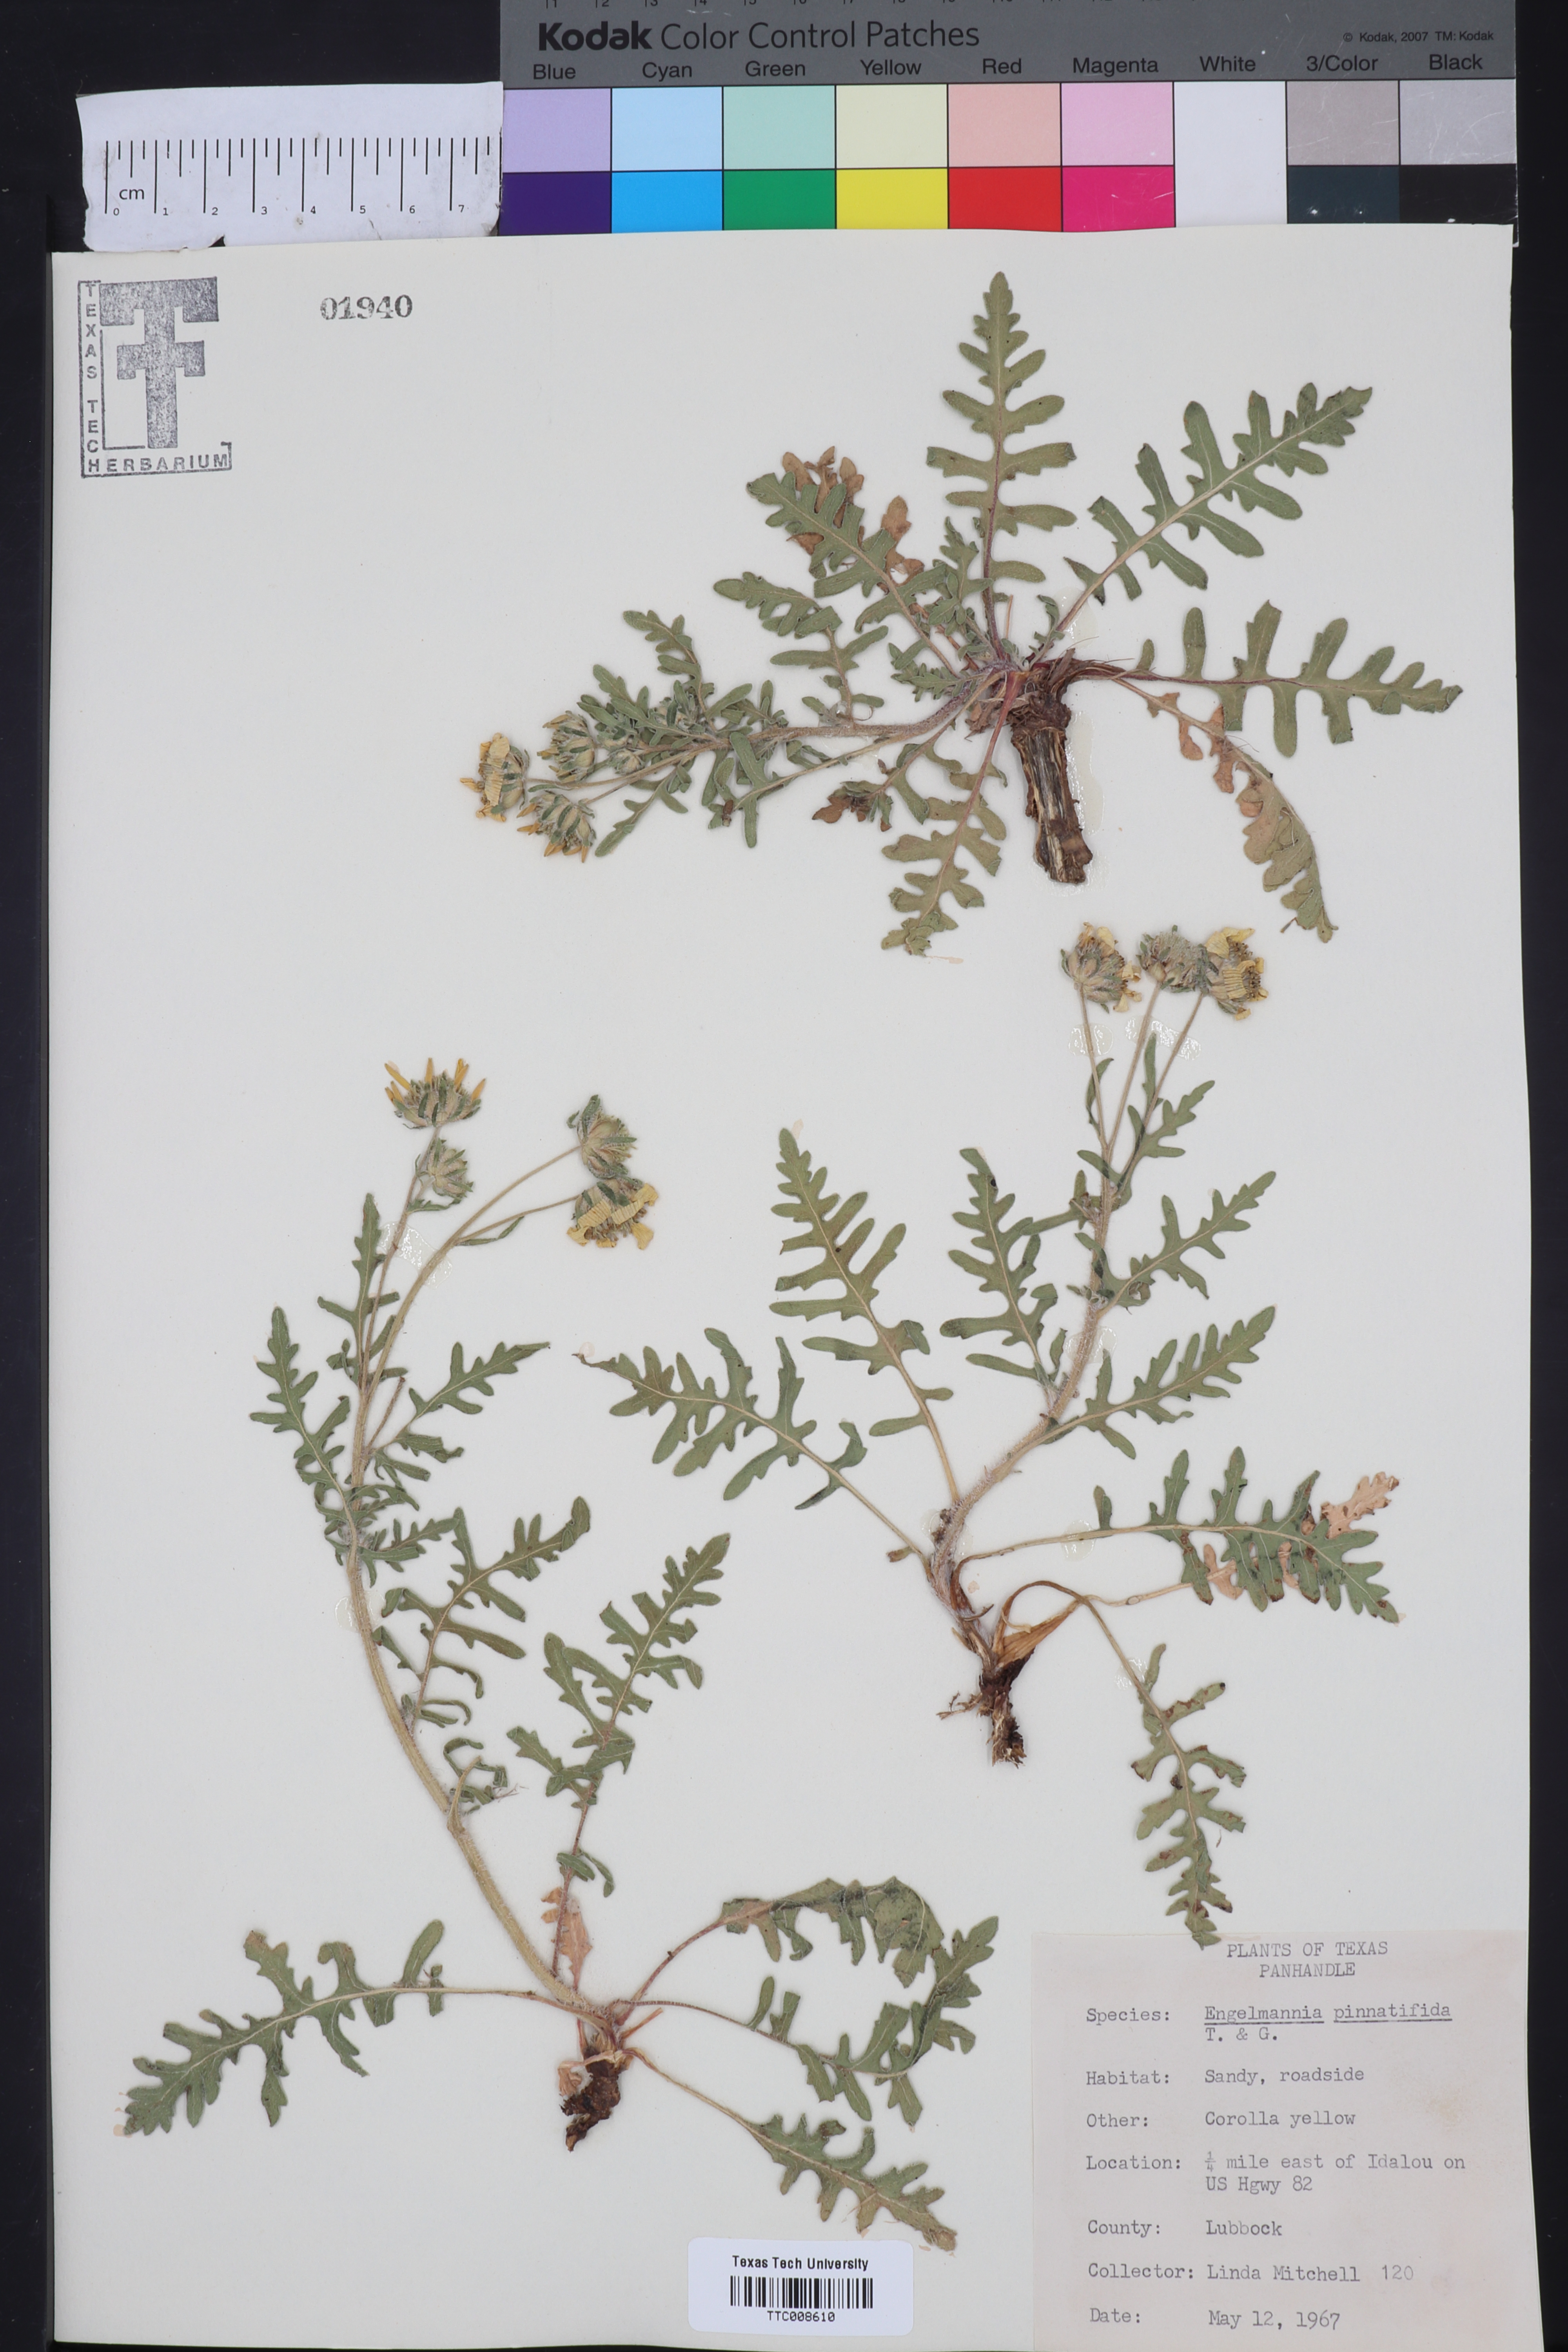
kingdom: Plantae
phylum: Tracheophyta
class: Magnoliopsida
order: Asterales
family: Asteraceae
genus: Engelmannia
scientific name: Engelmannia peristenia
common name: Engelmann's daisy
